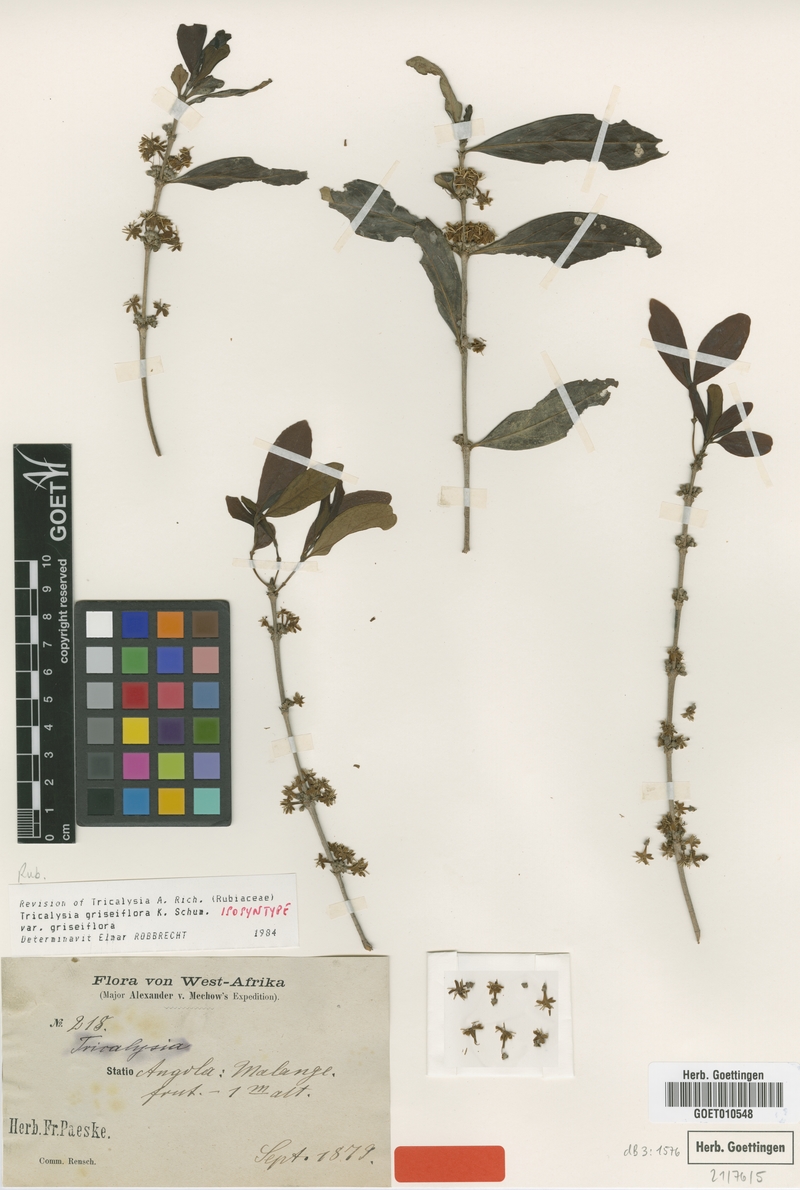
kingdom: Plantae
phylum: Tracheophyta
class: Magnoliopsida
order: Gentianales
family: Rubiaceae
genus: Tricalysia
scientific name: Tricalysia griseiflora
